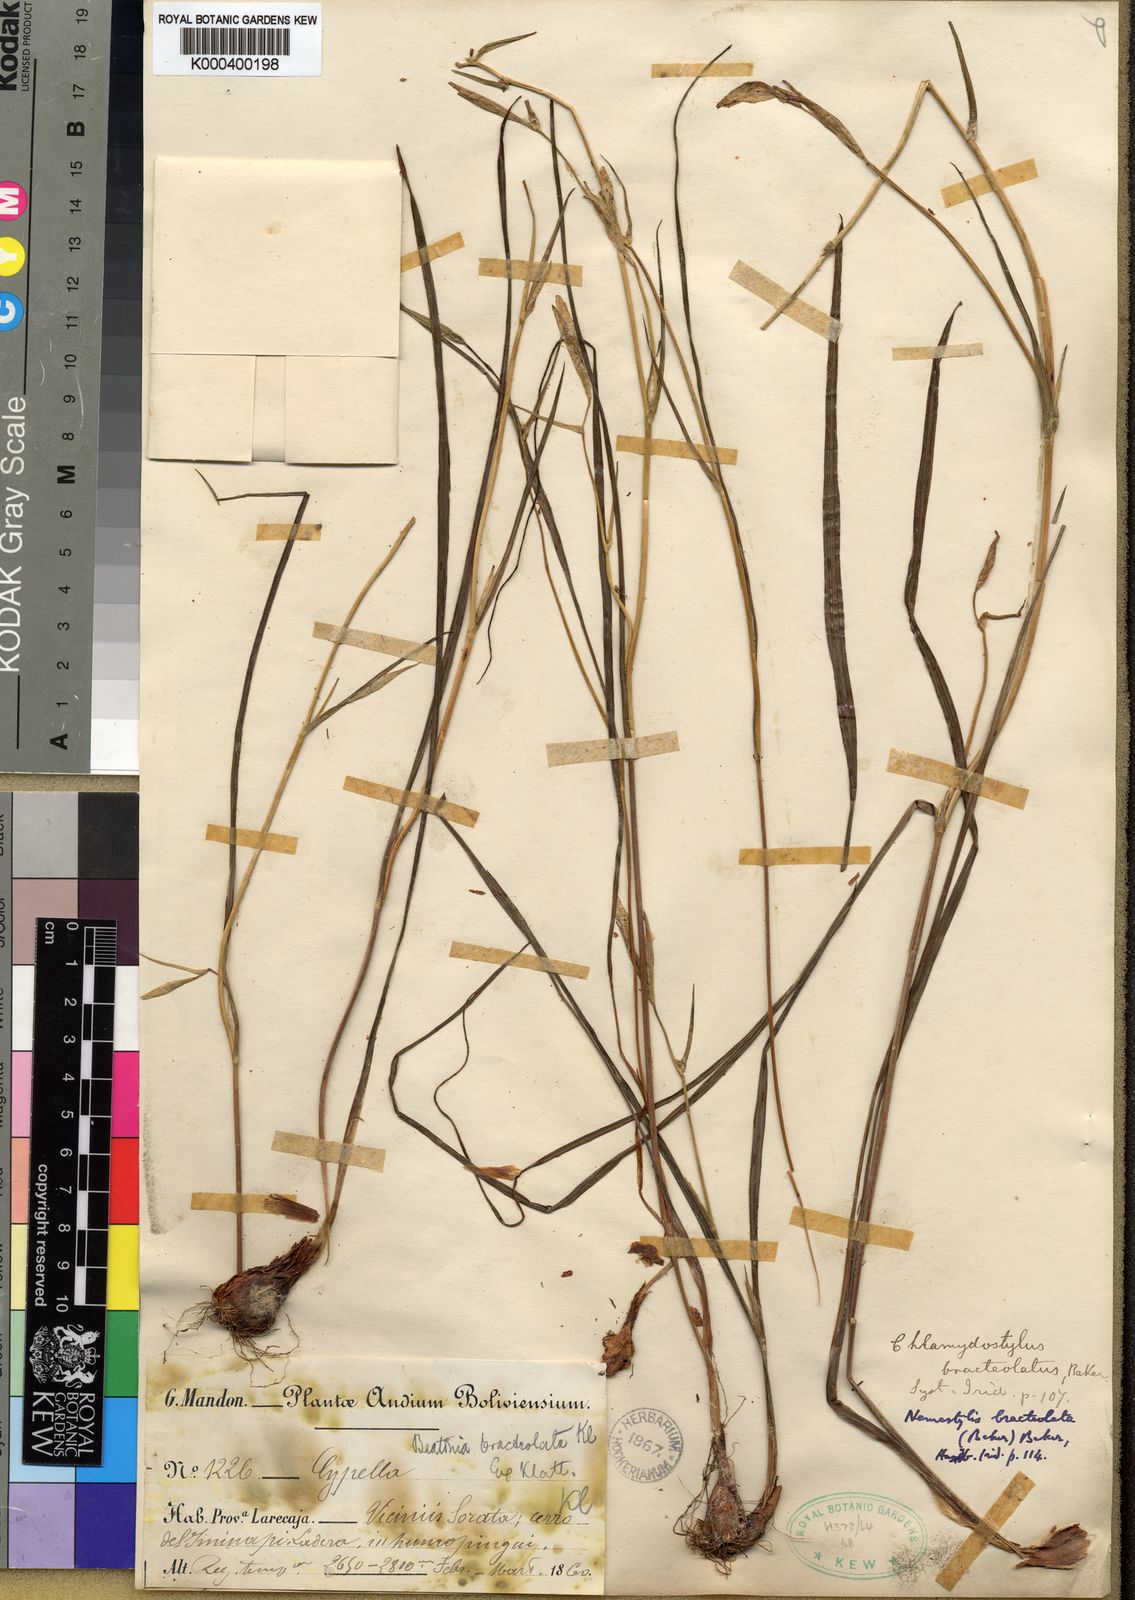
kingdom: Plantae
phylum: Tracheophyta
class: Liliopsida
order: Asparagales
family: Iridaceae
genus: Alophia
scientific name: Alophia drummondii
